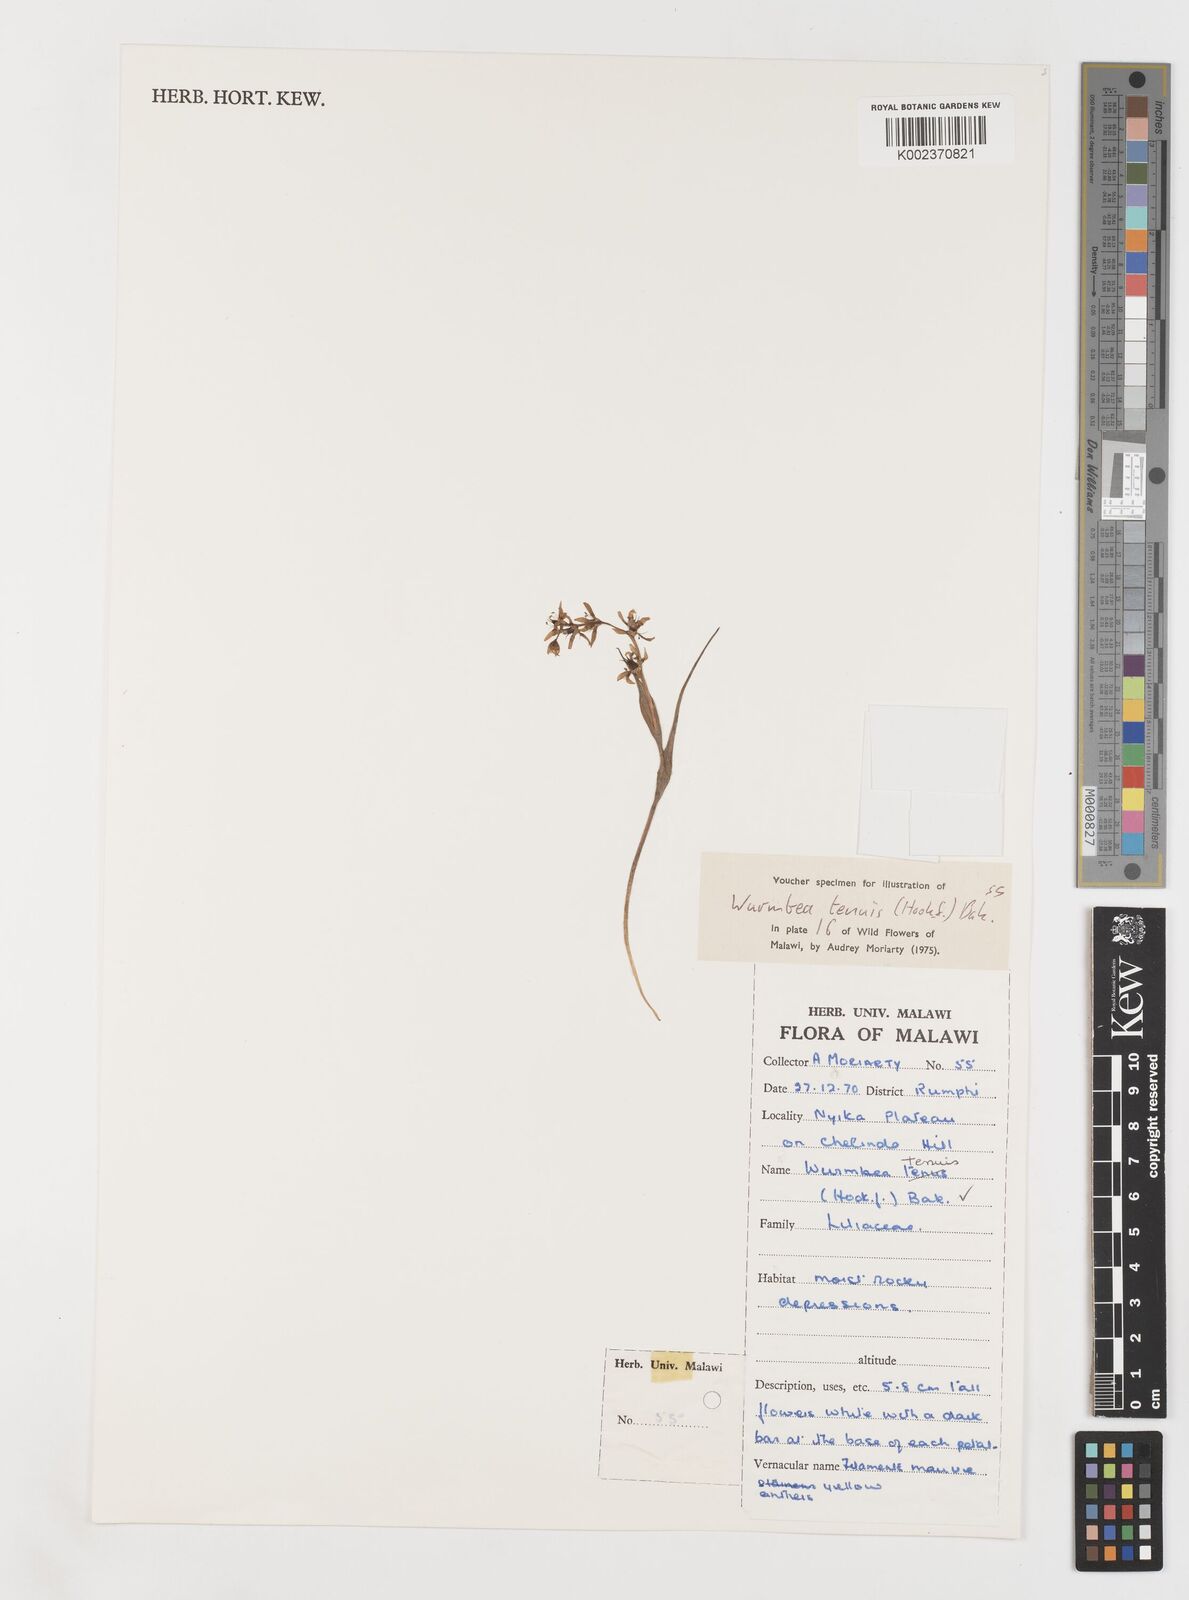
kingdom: Plantae
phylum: Tracheophyta
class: Liliopsida
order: Liliales
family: Colchicaceae
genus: Wurmbea
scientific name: Wurmbea tenuis
